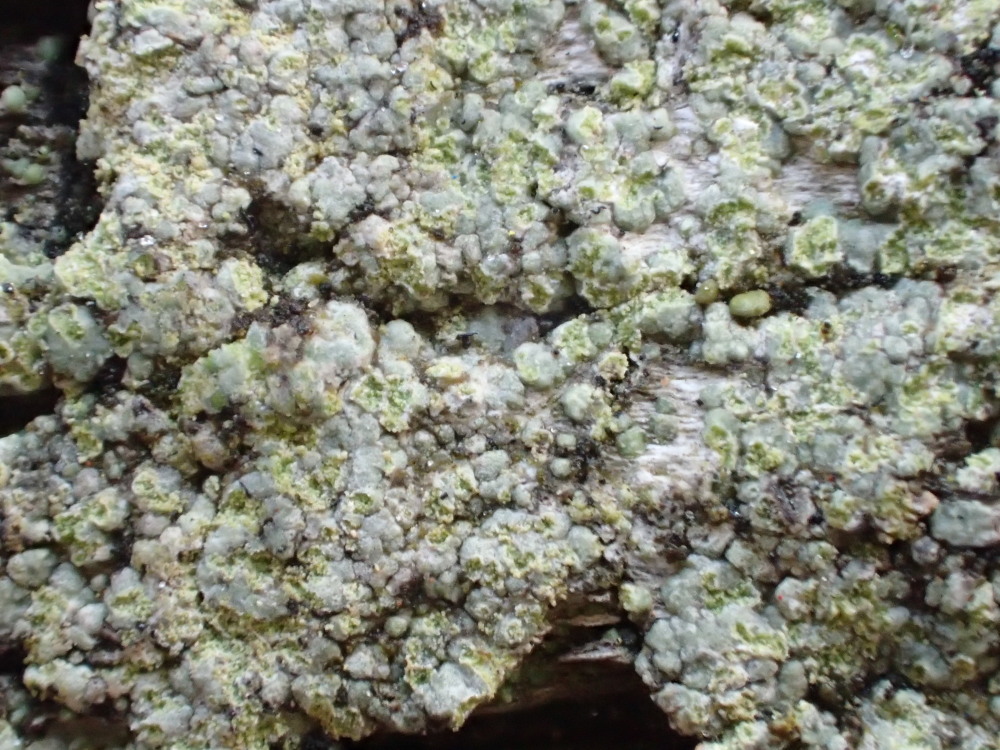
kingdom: Fungi
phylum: Ascomycota
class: Lecanoromycetes
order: Baeomycetales
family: Trapeliaceae
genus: Kleopowiella
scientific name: Kleopowiella placodioides
